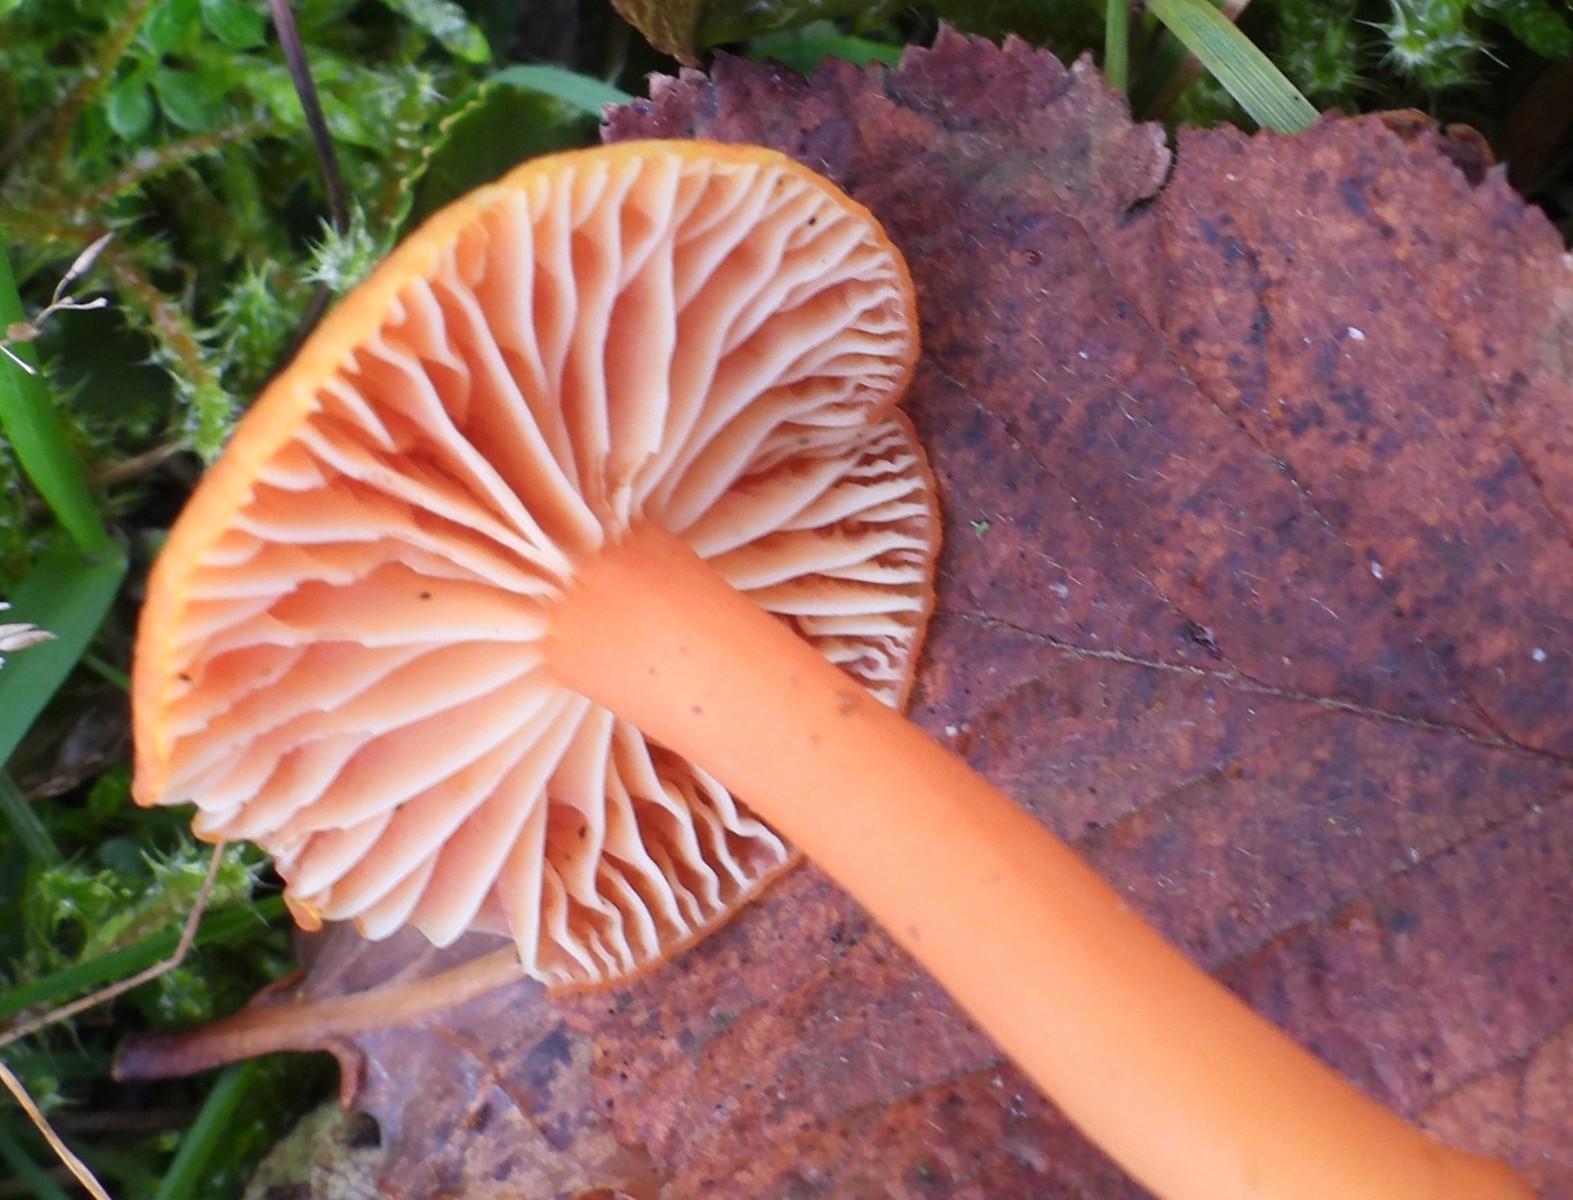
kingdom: Fungi
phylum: Basidiomycota
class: Agaricomycetes
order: Agaricales
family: Hygrophoraceae
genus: Hygrocybe
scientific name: Hygrocybe miniata
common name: mønje-vokshat
